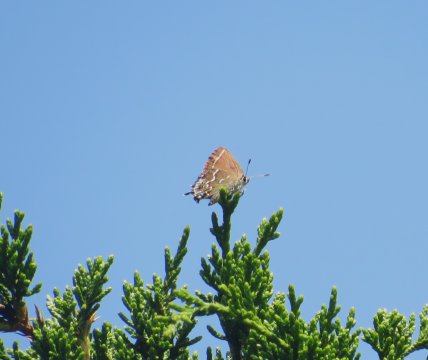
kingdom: Animalia
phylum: Arthropoda
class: Insecta
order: Lepidoptera
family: Lycaenidae
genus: Mitoura
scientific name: Mitoura gryneus
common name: Juniper Hairstreak
